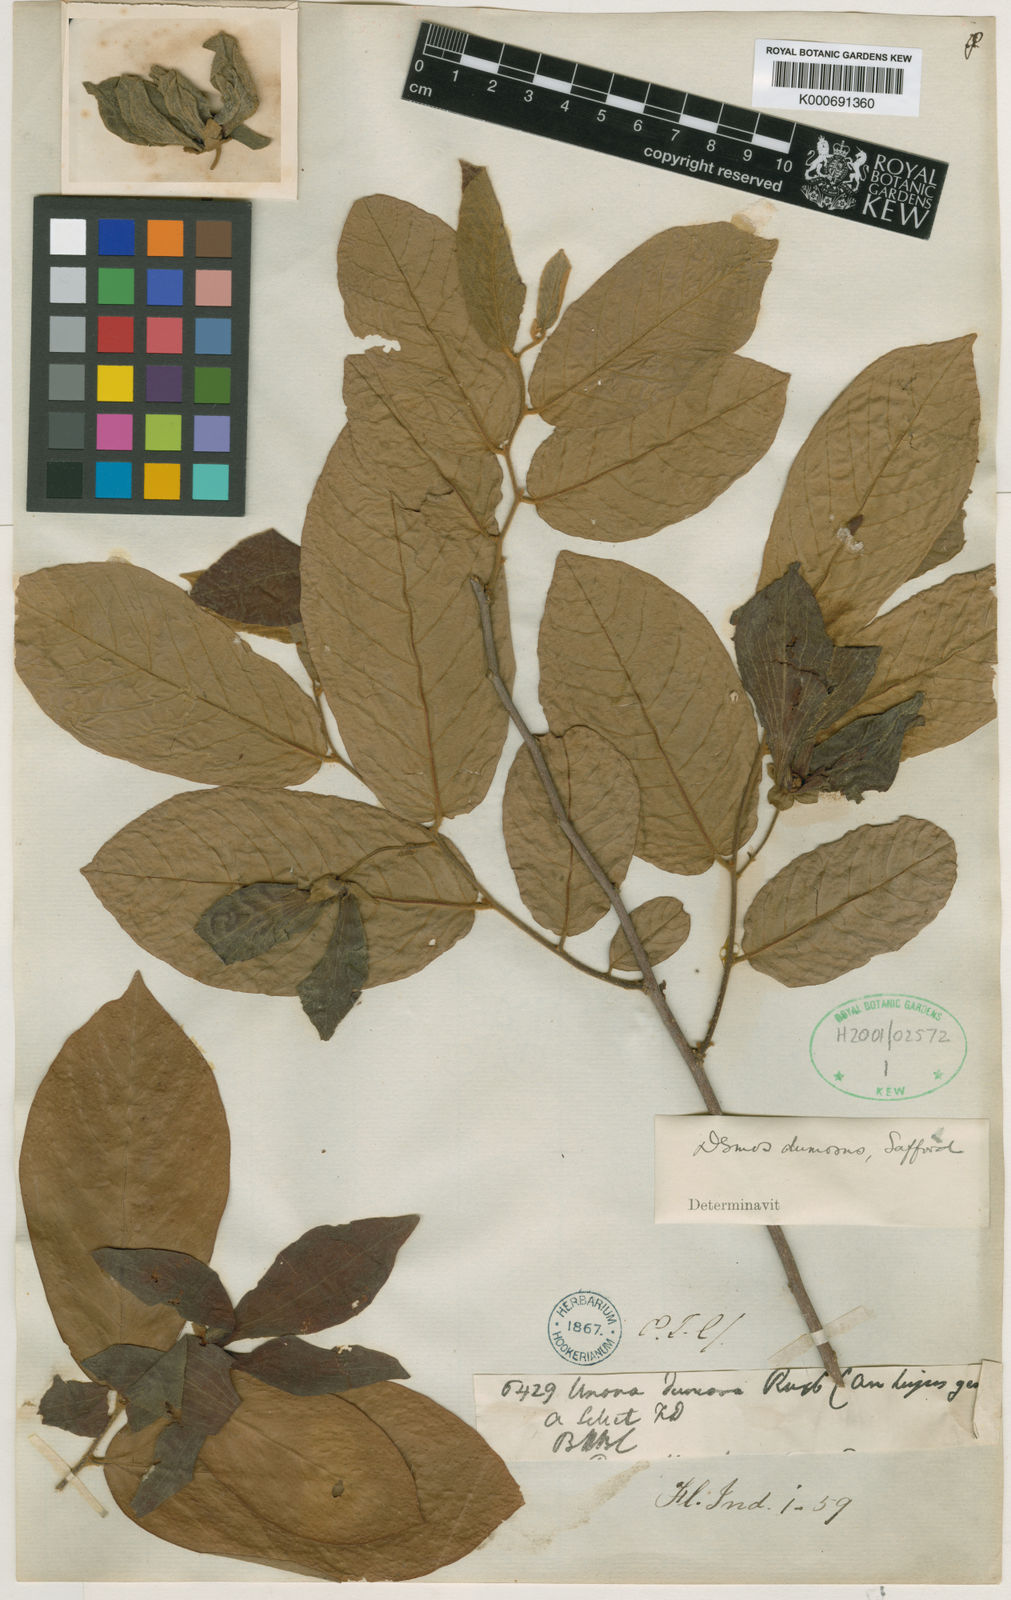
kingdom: Plantae
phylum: Tracheophyta
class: Magnoliopsida
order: Magnoliales
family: Annonaceae
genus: Desmos
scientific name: Desmos dumosus
